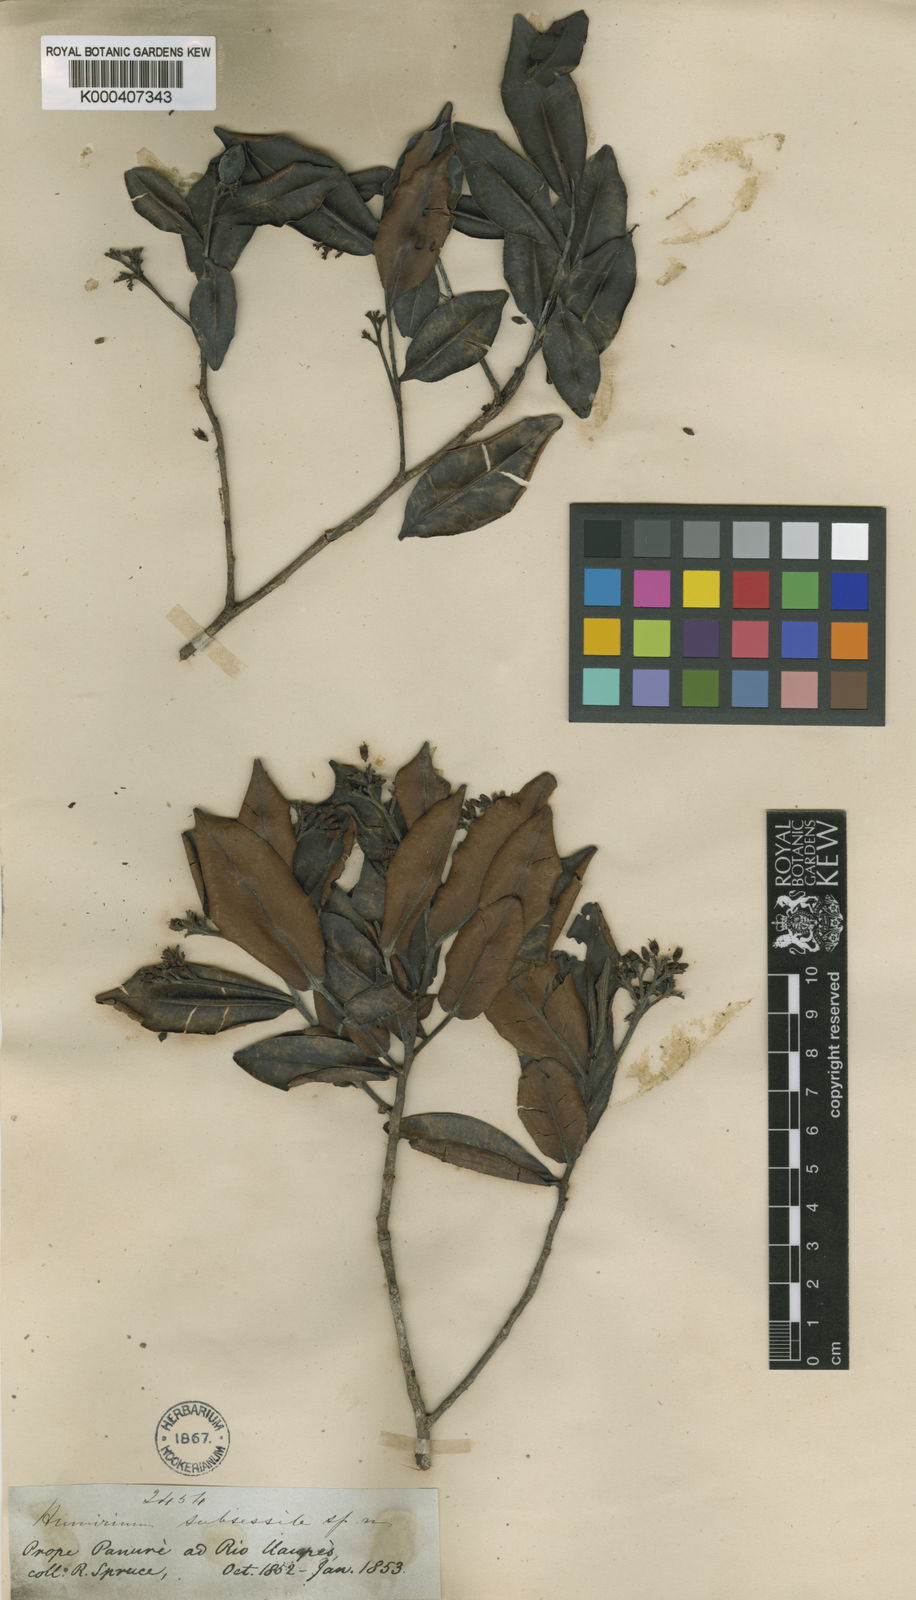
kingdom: Plantae
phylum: Tracheophyta
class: Magnoliopsida
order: Malpighiales
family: Humiriaceae
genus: Humiria
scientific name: Humiria balsamifera
